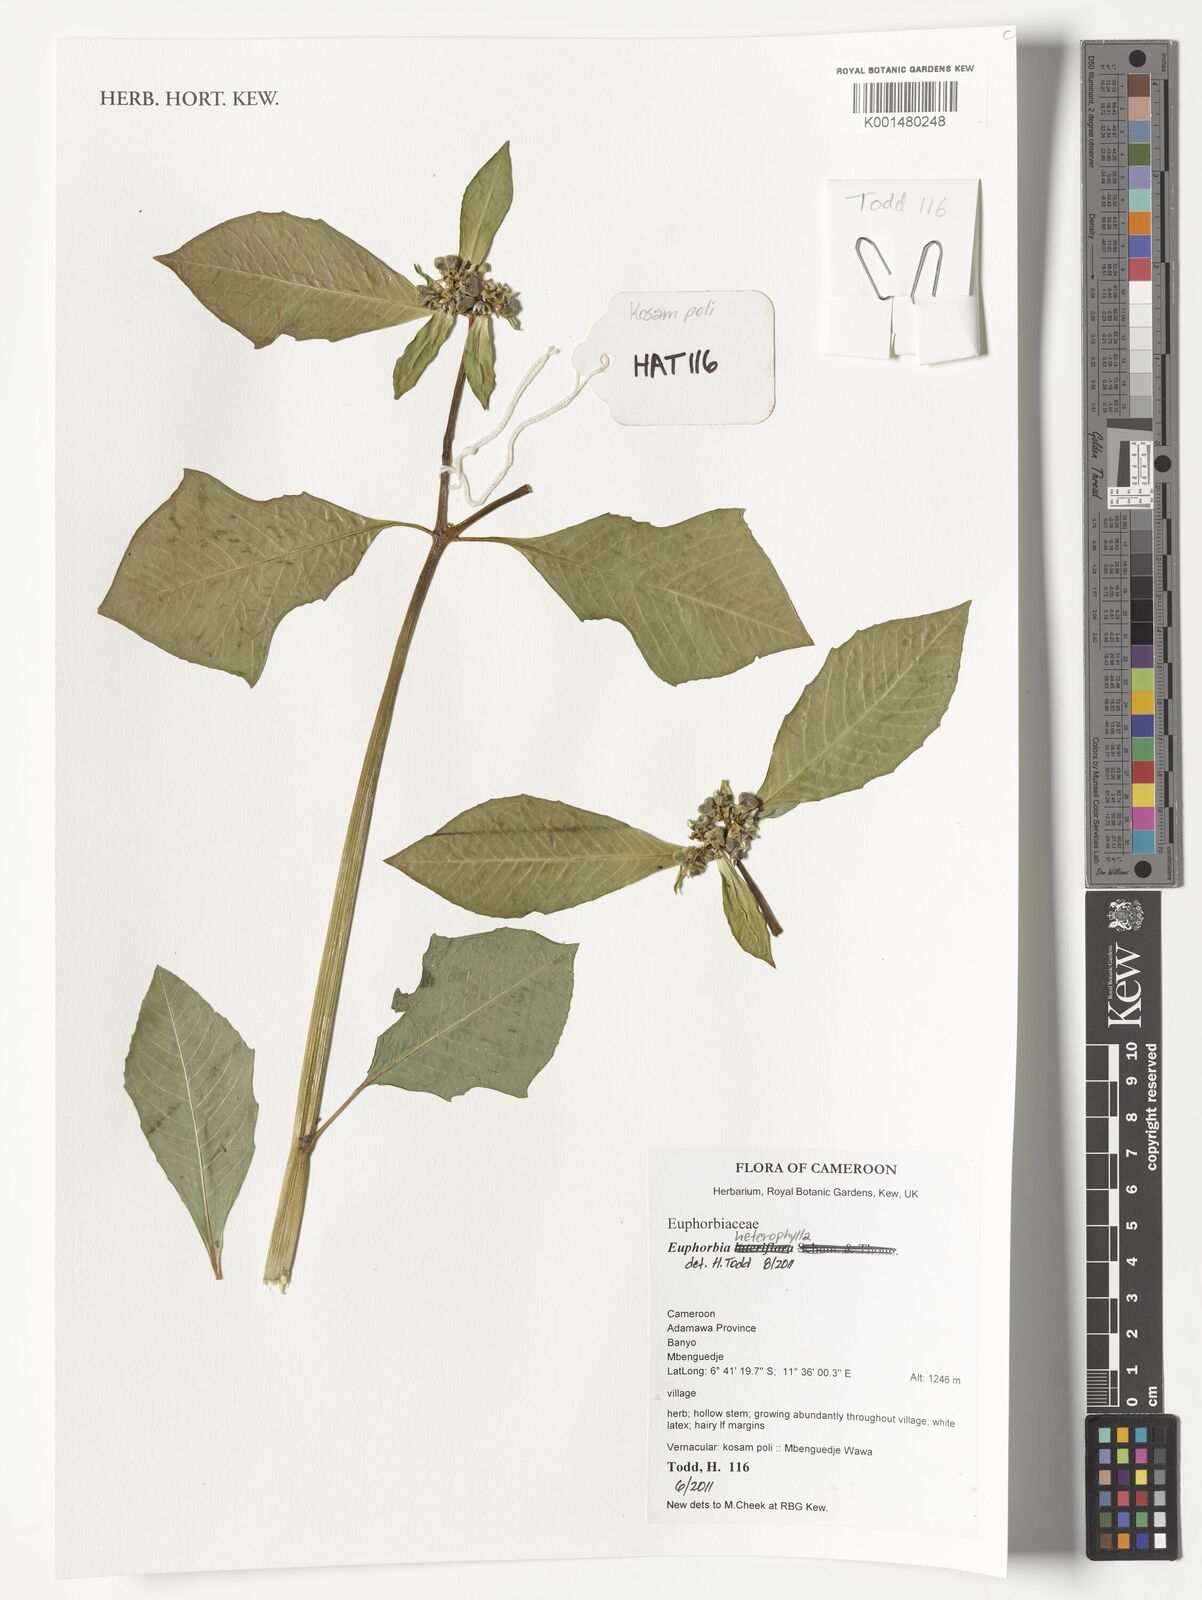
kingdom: Plantae
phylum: Tracheophyta
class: Magnoliopsida
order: Malpighiales
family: Euphorbiaceae
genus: Euphorbia
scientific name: Euphorbia heterophylla
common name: Mexican fireplant
